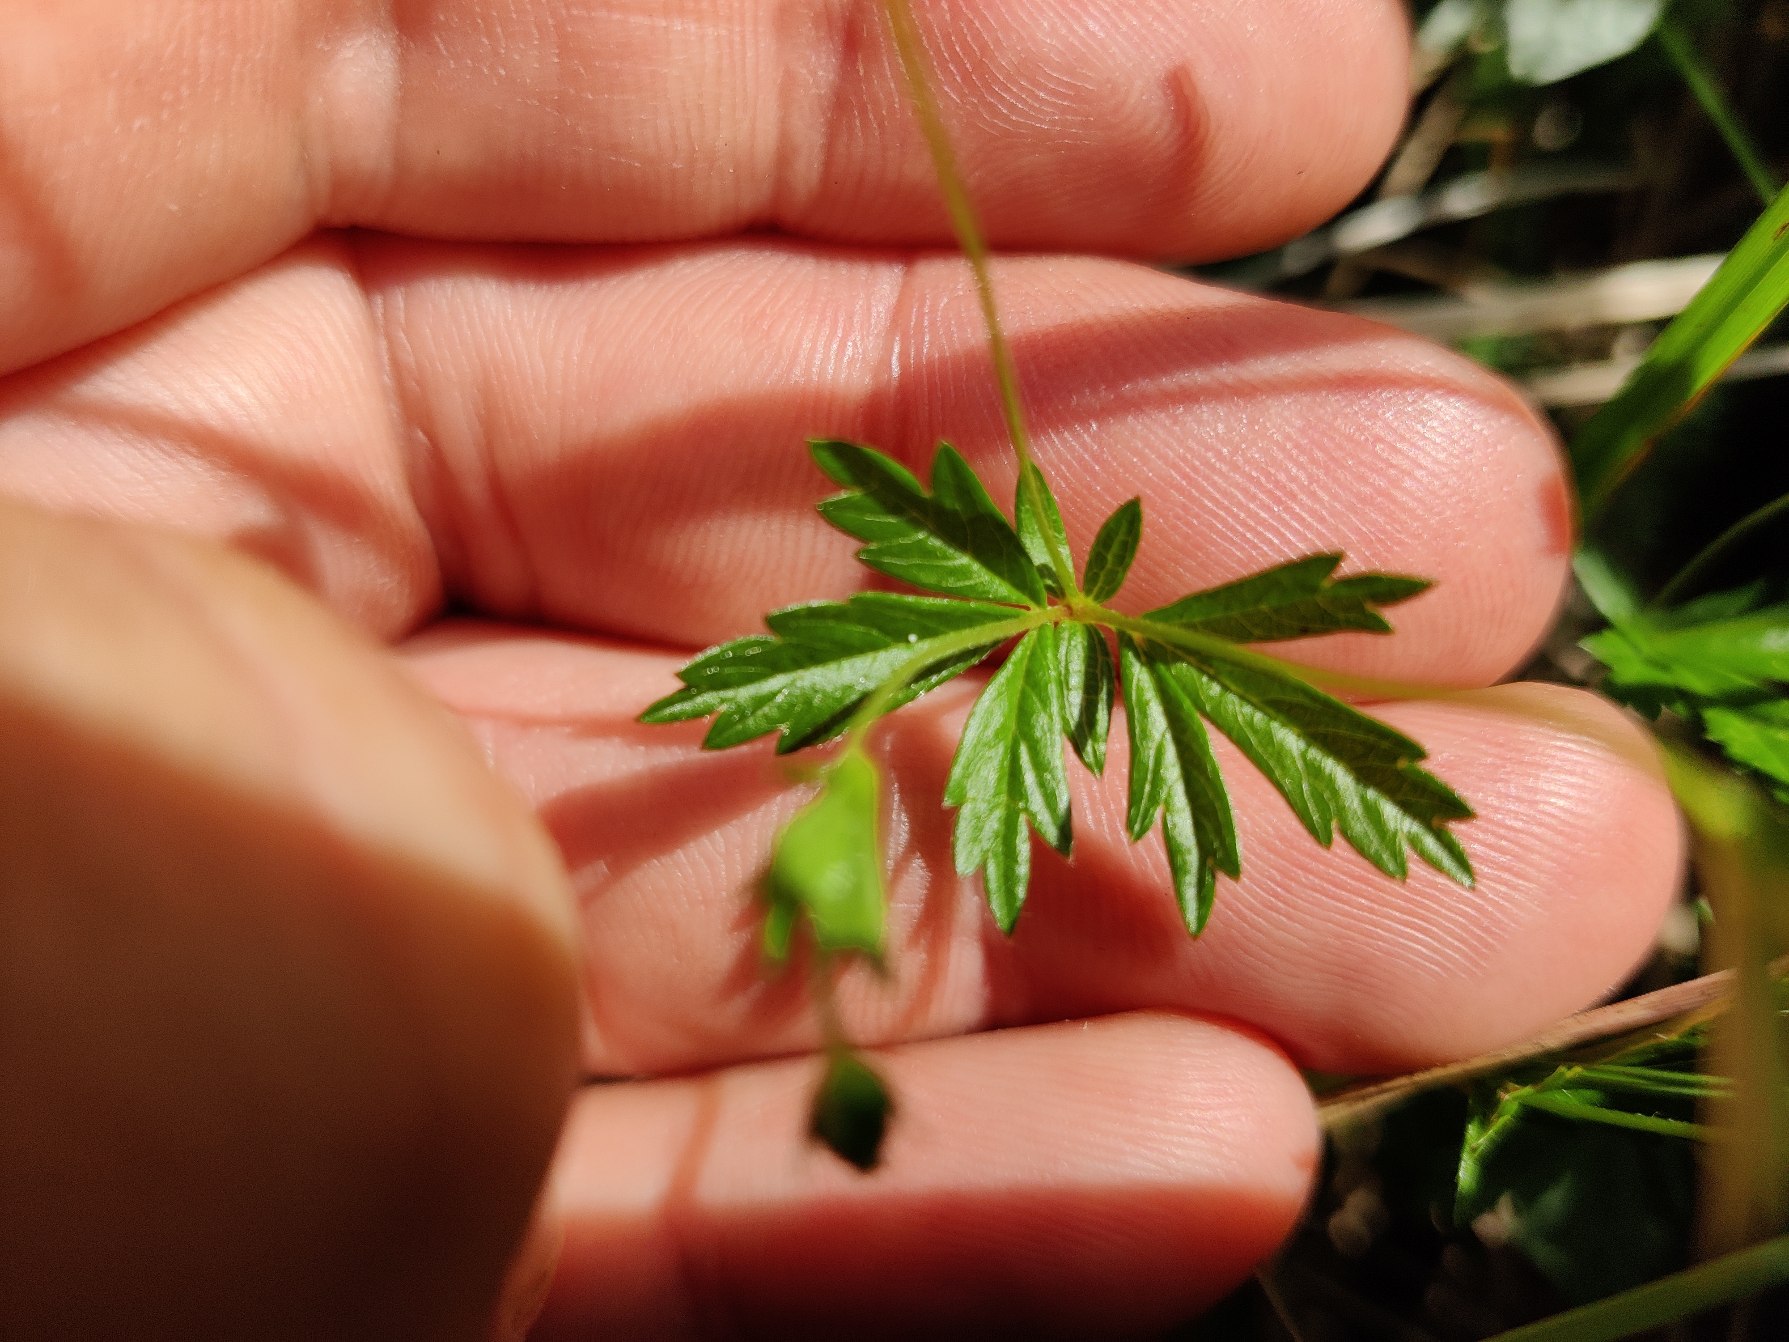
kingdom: Plantae
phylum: Tracheophyta
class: Magnoliopsida
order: Rosales
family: Rosaceae
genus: Potentilla
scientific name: Potentilla erecta
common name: Tormentil
